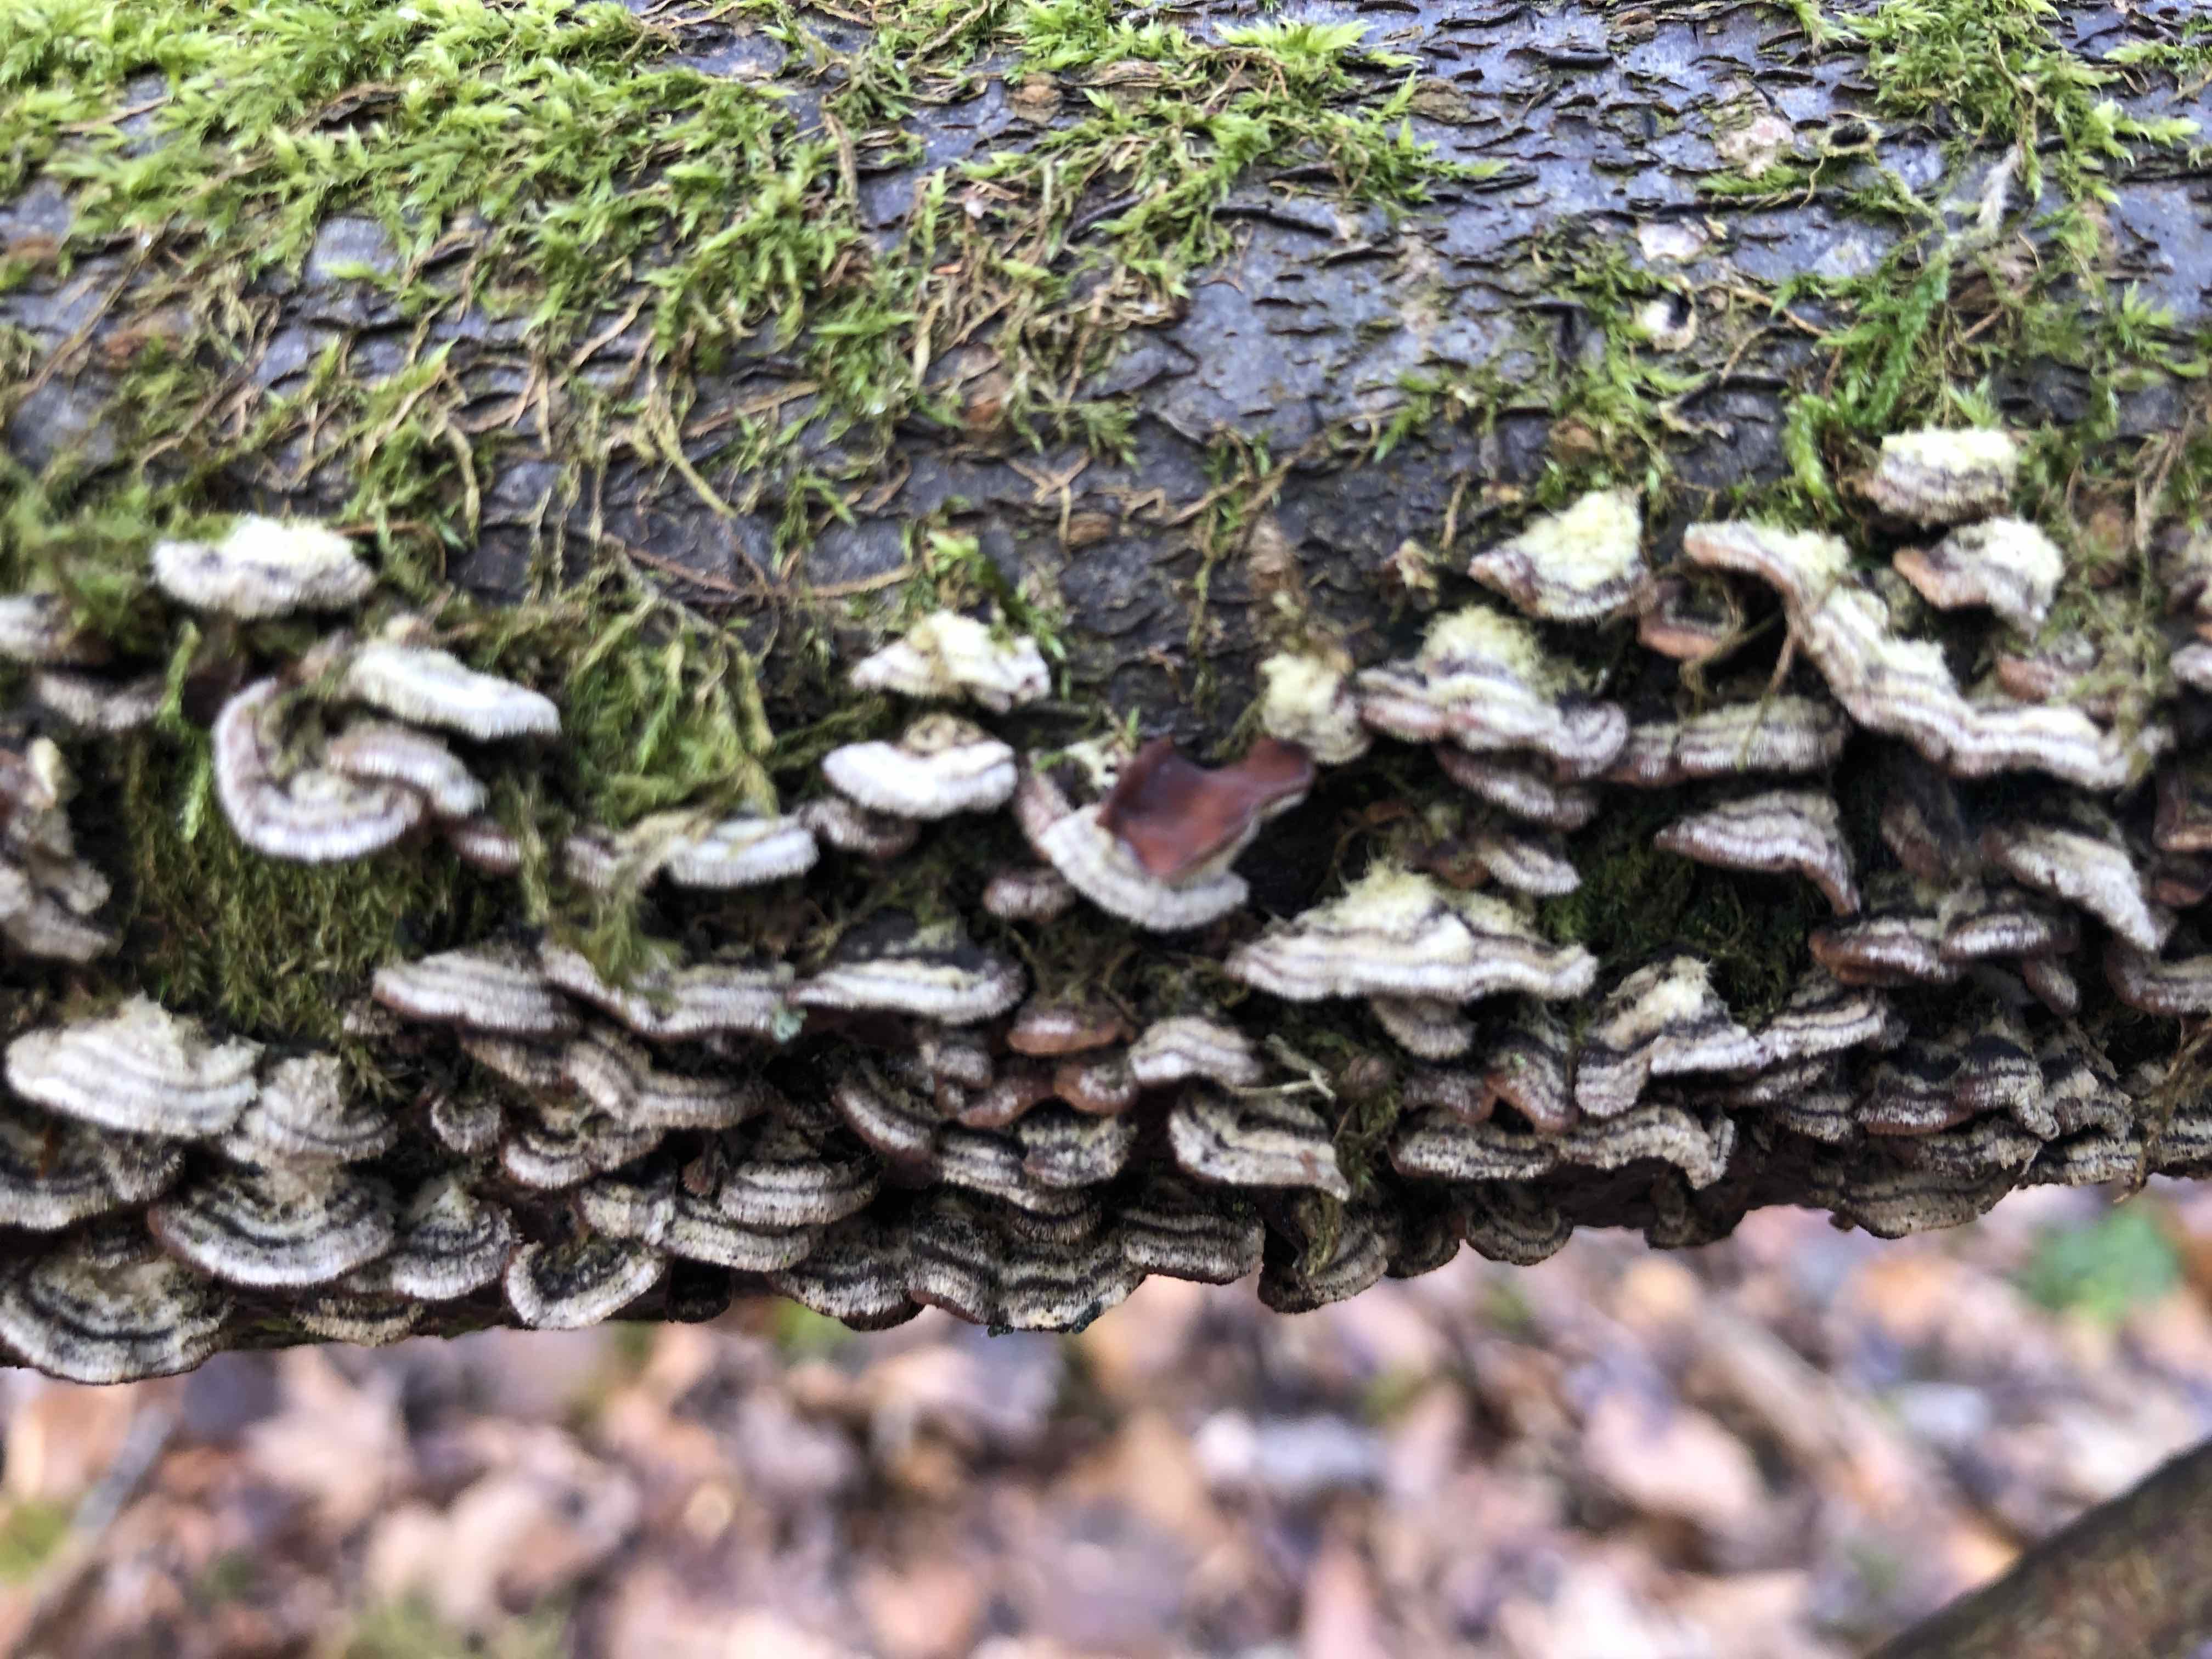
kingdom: Fungi
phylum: Basidiomycota
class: Agaricomycetes
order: Agaricales
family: Cyphellaceae
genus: Chondrostereum
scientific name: Chondrostereum purpureum
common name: purpurlædersvamp
